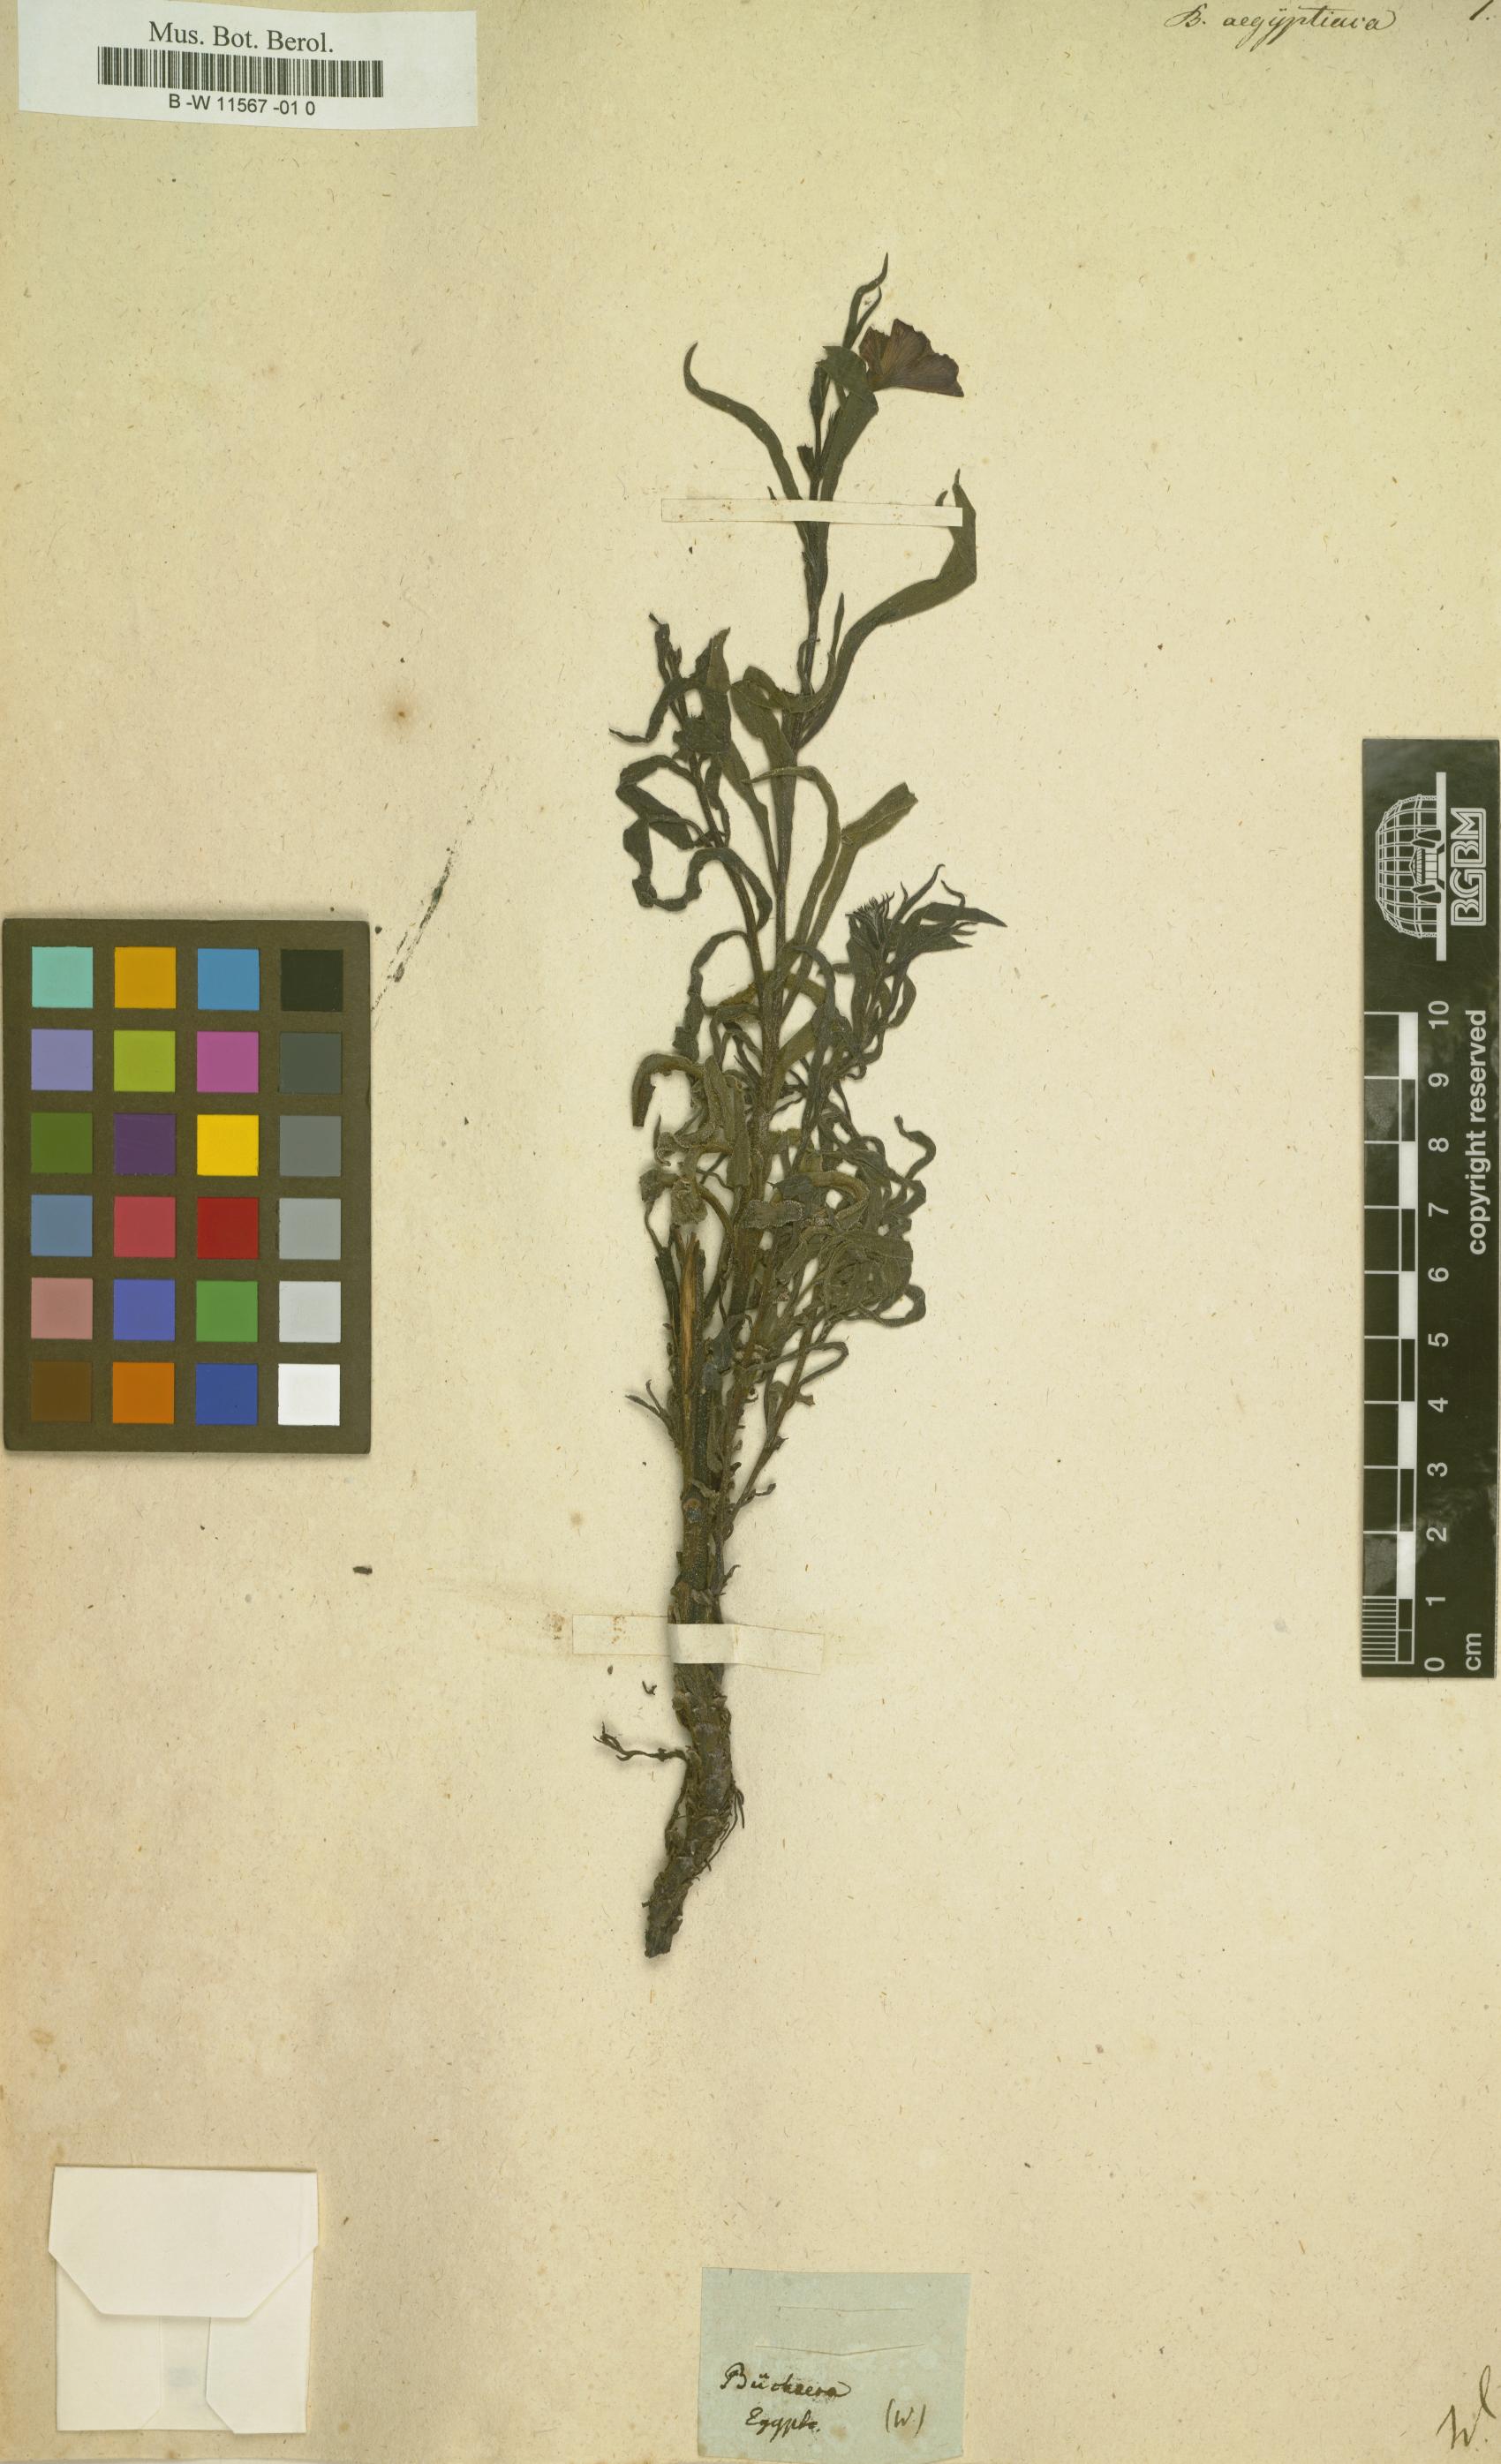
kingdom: Plantae
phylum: Tracheophyta
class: Magnoliopsida
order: Lamiales
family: Orobanchaceae
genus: Buchnera
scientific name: Buchnera
